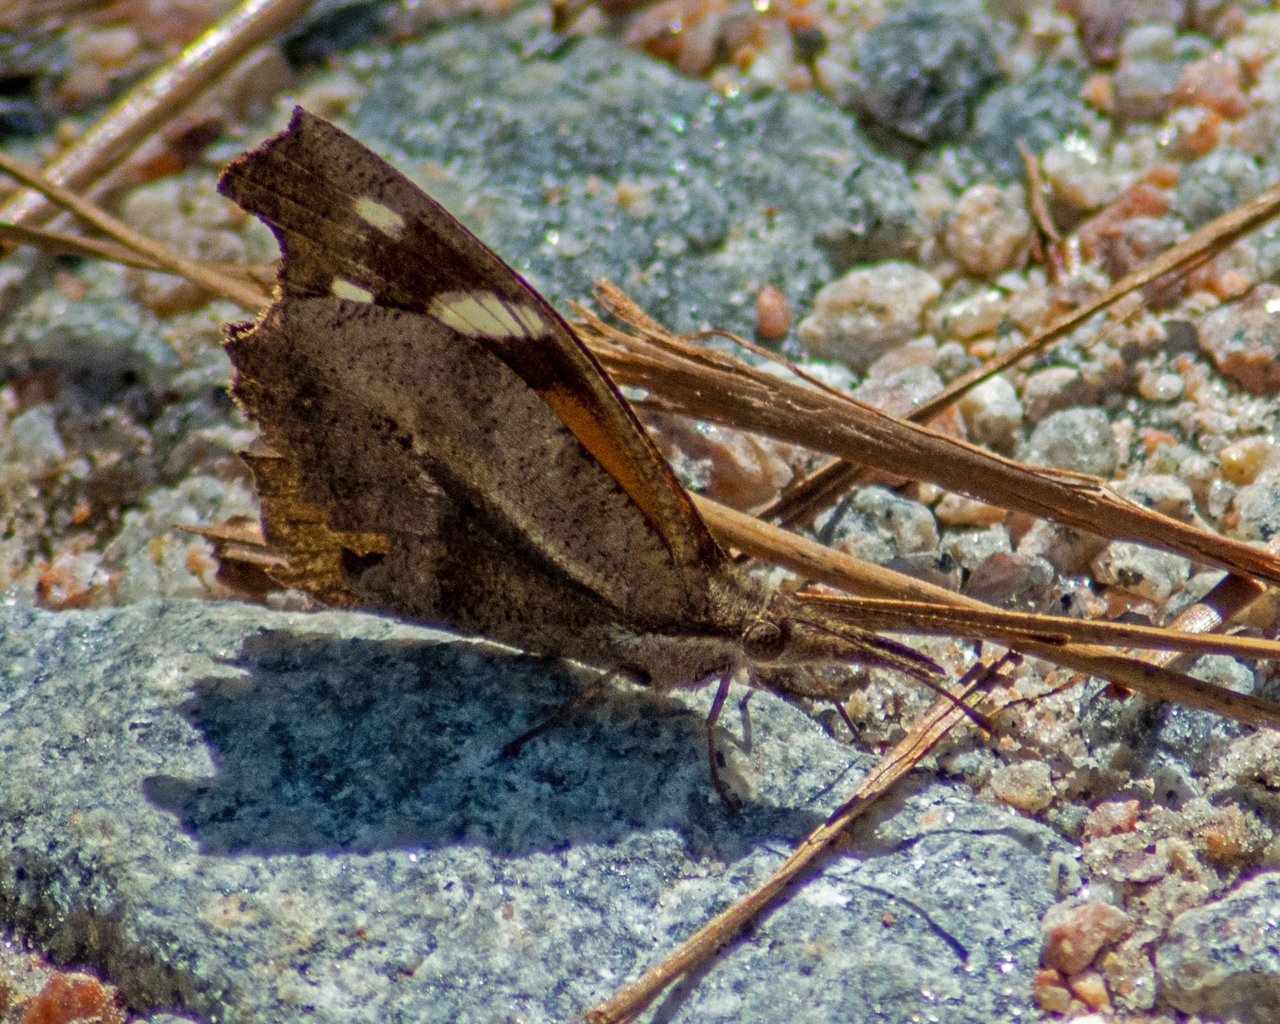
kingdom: Animalia
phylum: Arthropoda
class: Insecta
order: Lepidoptera
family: Nymphalidae
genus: Libytheana
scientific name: Libytheana carinenta
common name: American Snout
